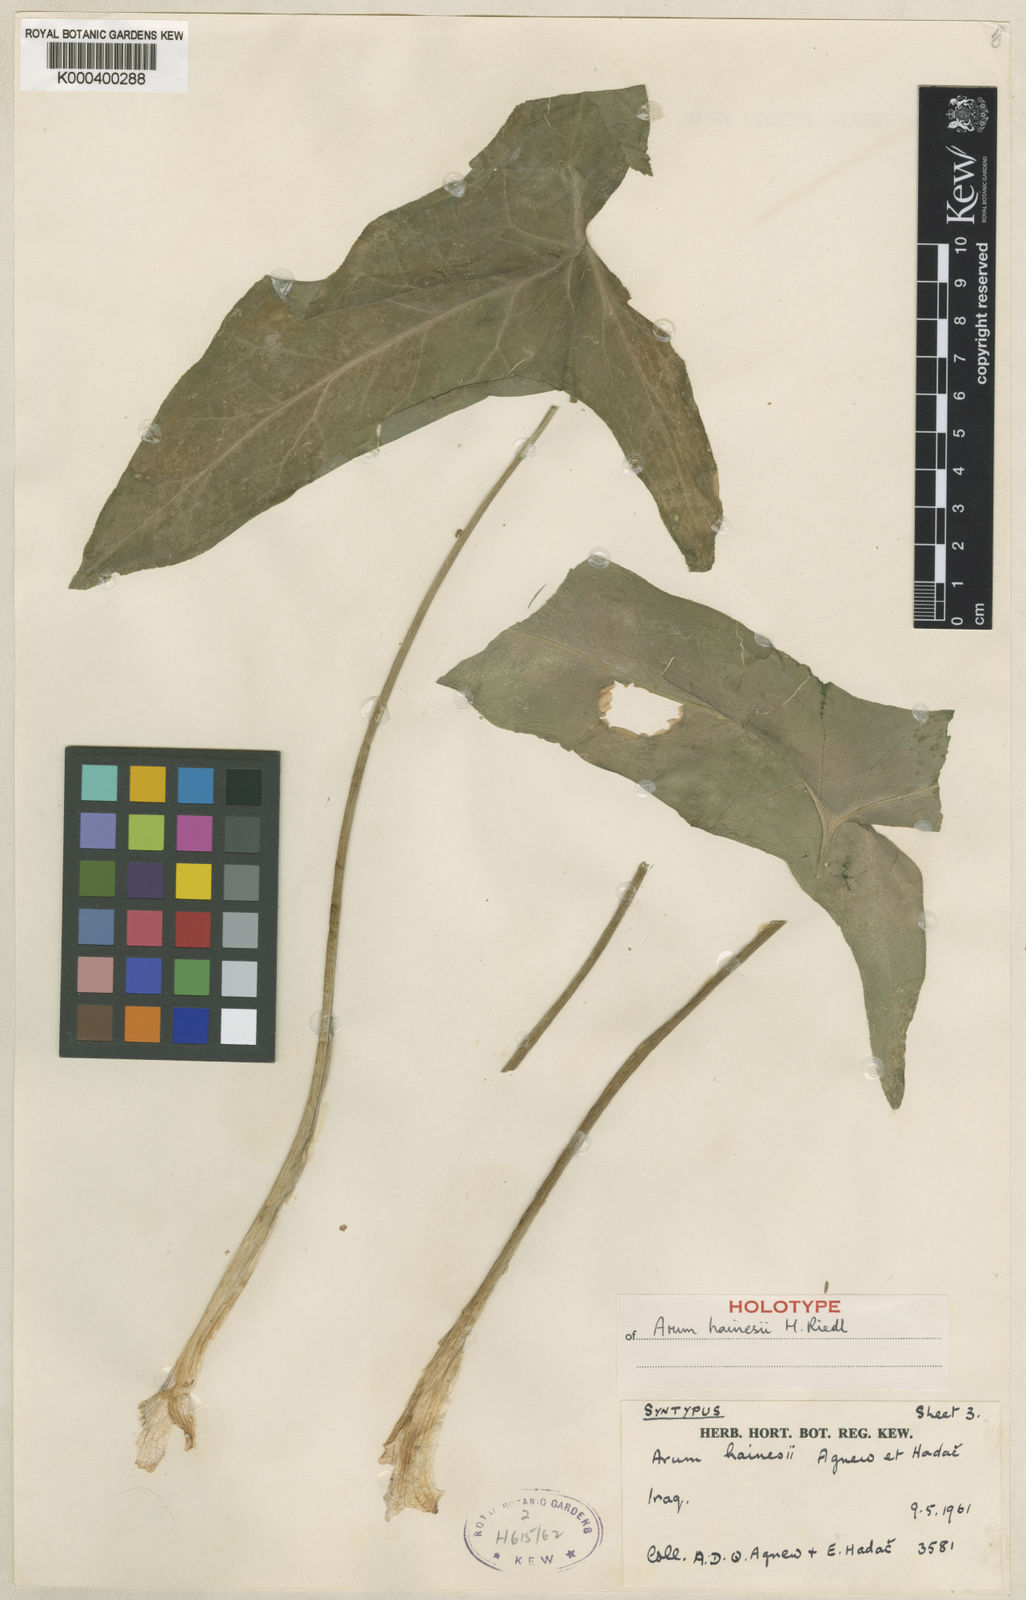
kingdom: Plantae
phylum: Tracheophyta
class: Liliopsida
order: Alismatales
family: Araceae
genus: Arum
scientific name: Arum hainesii
